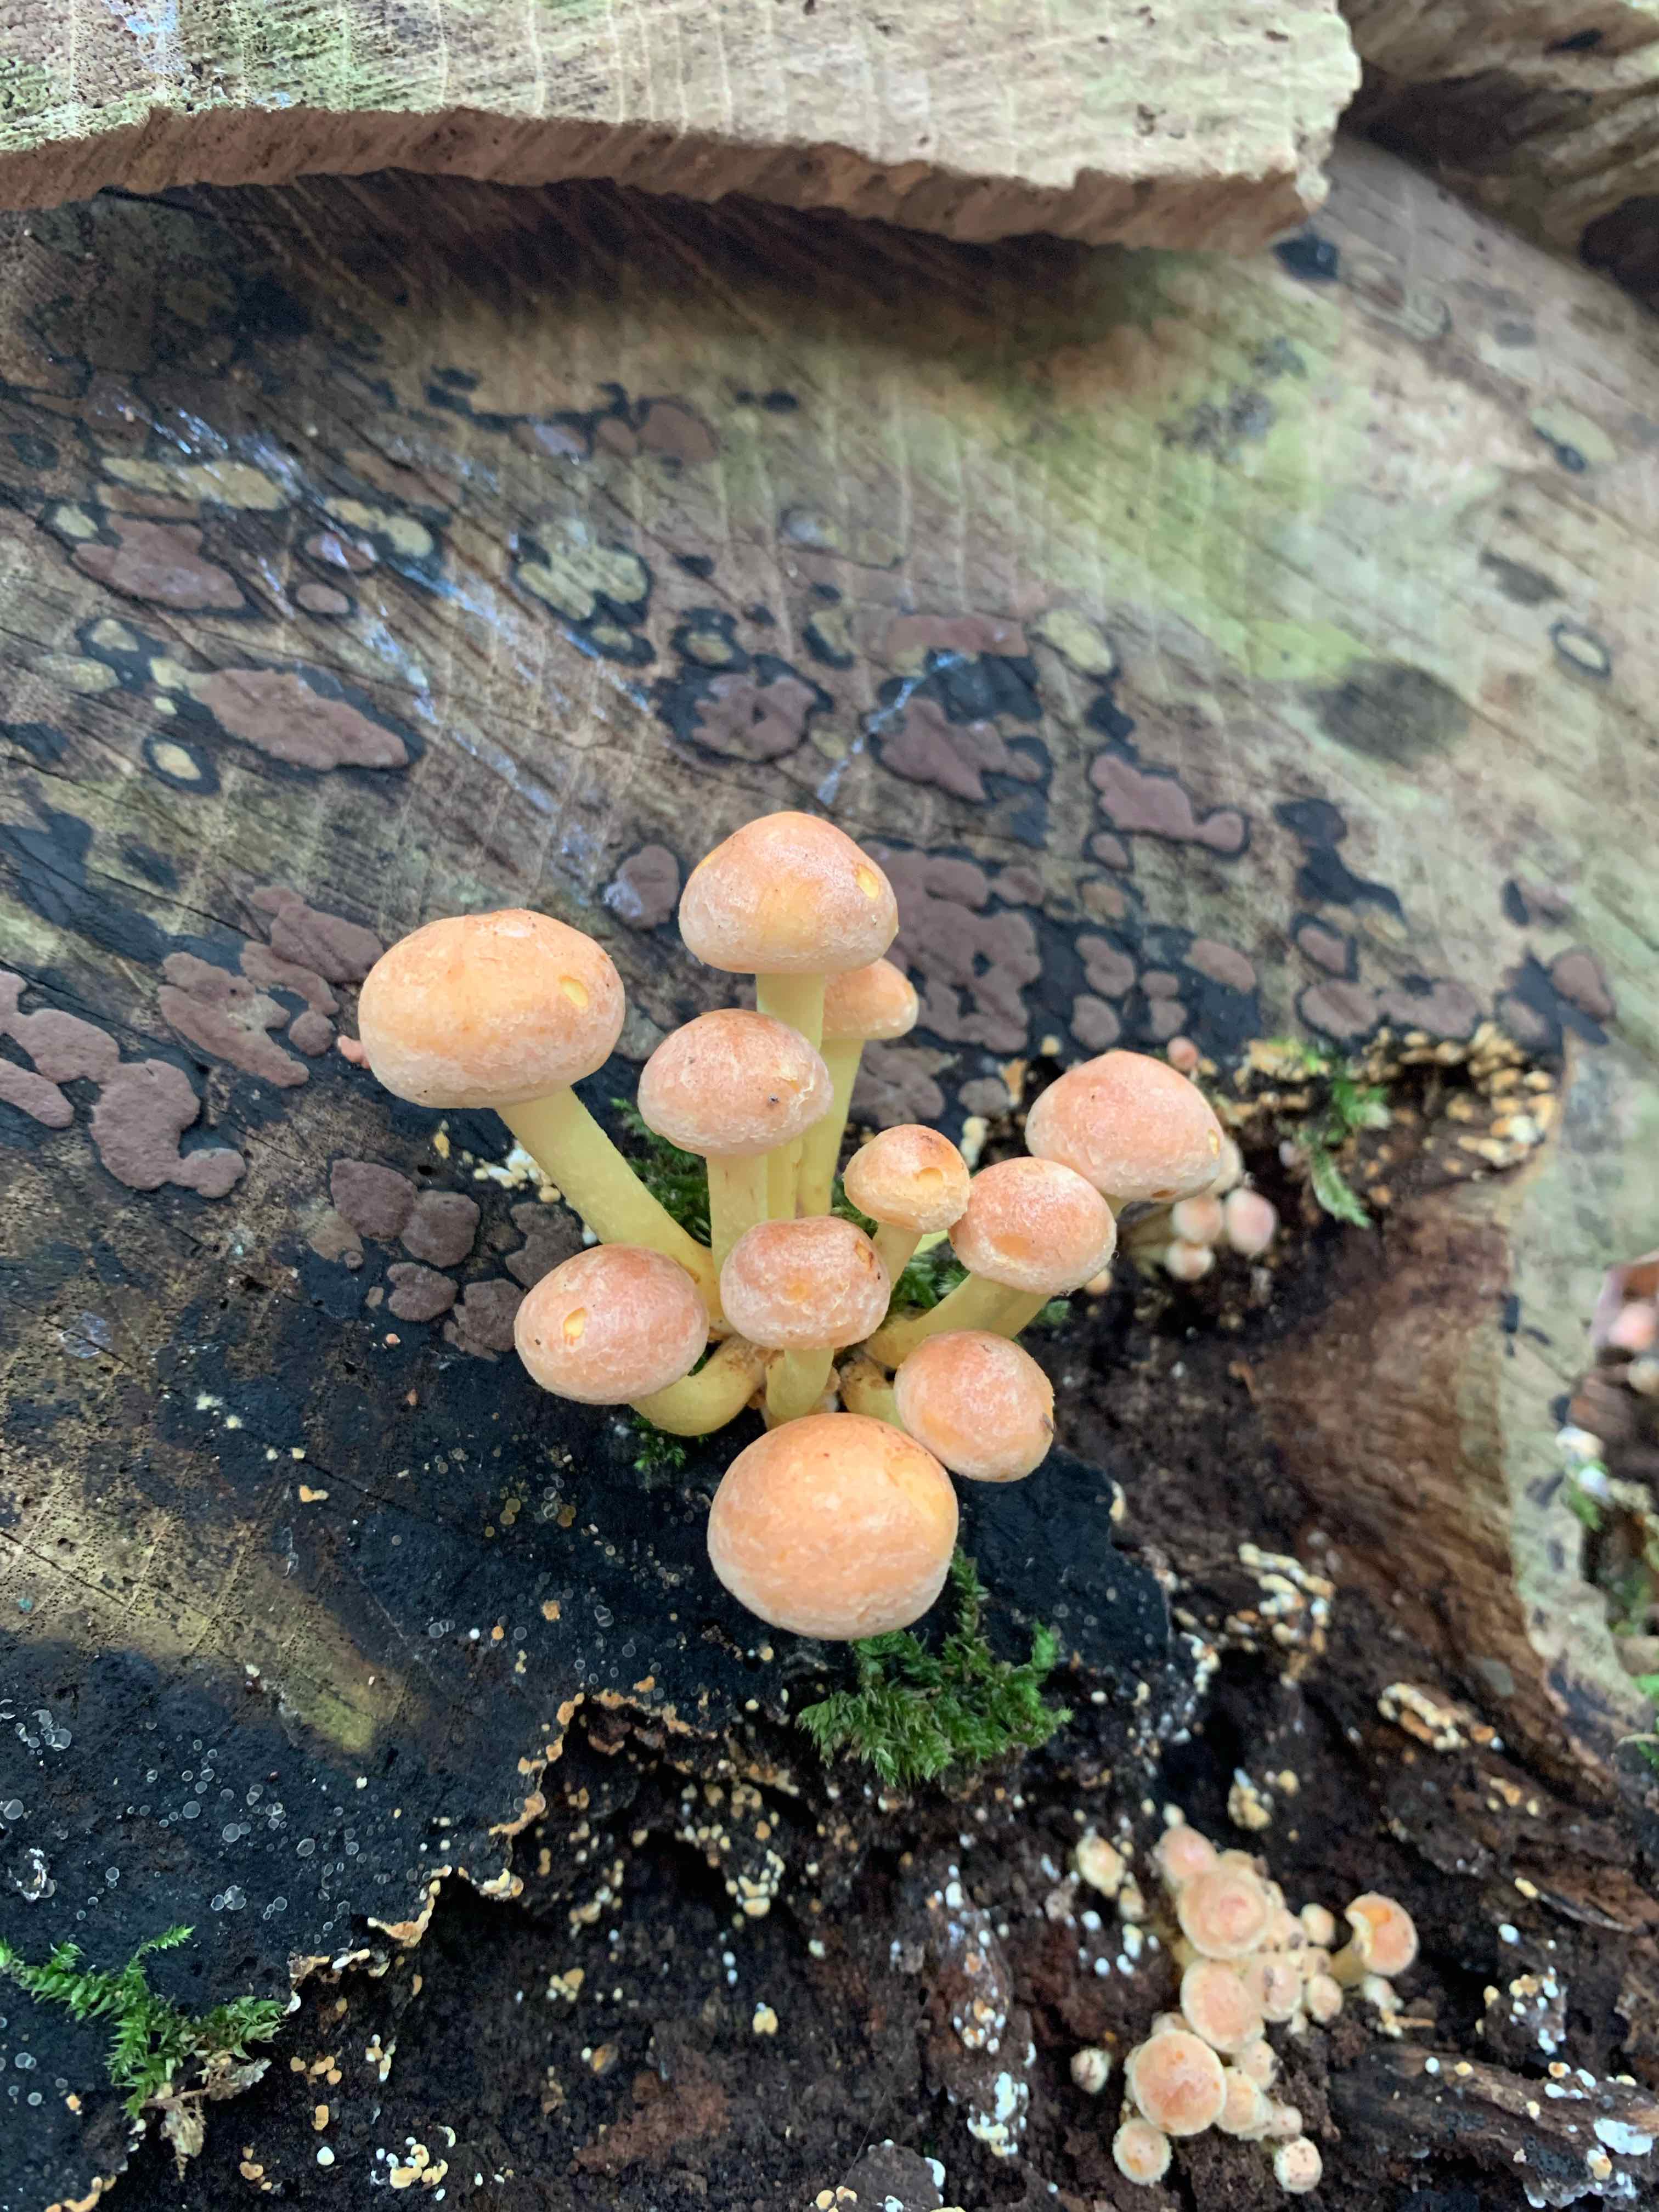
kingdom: Fungi
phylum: Basidiomycota
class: Agaricomycetes
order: Agaricales
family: Strophariaceae
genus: Hypholoma
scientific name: Hypholoma fasciculare
